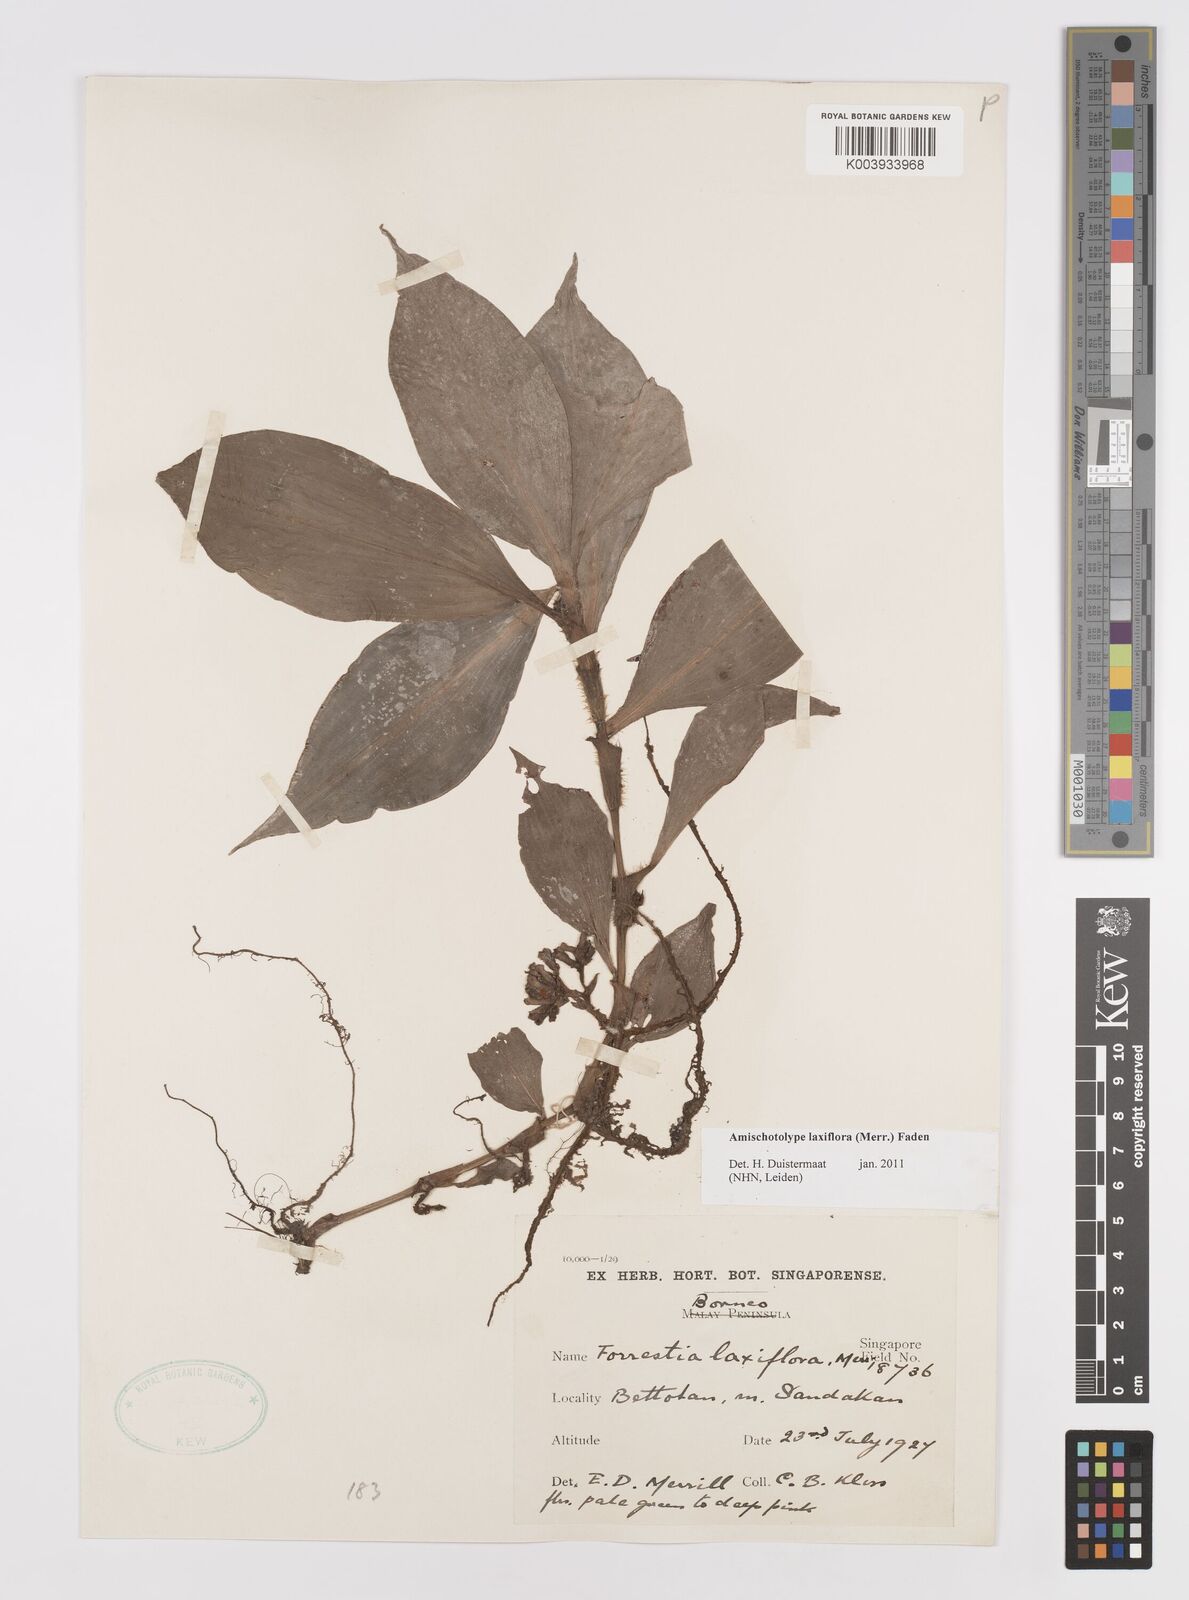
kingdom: Plantae
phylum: Tracheophyta
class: Liliopsida
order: Commelinales
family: Commelinaceae
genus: Amischotolype
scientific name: Amischotolype laxiflora
